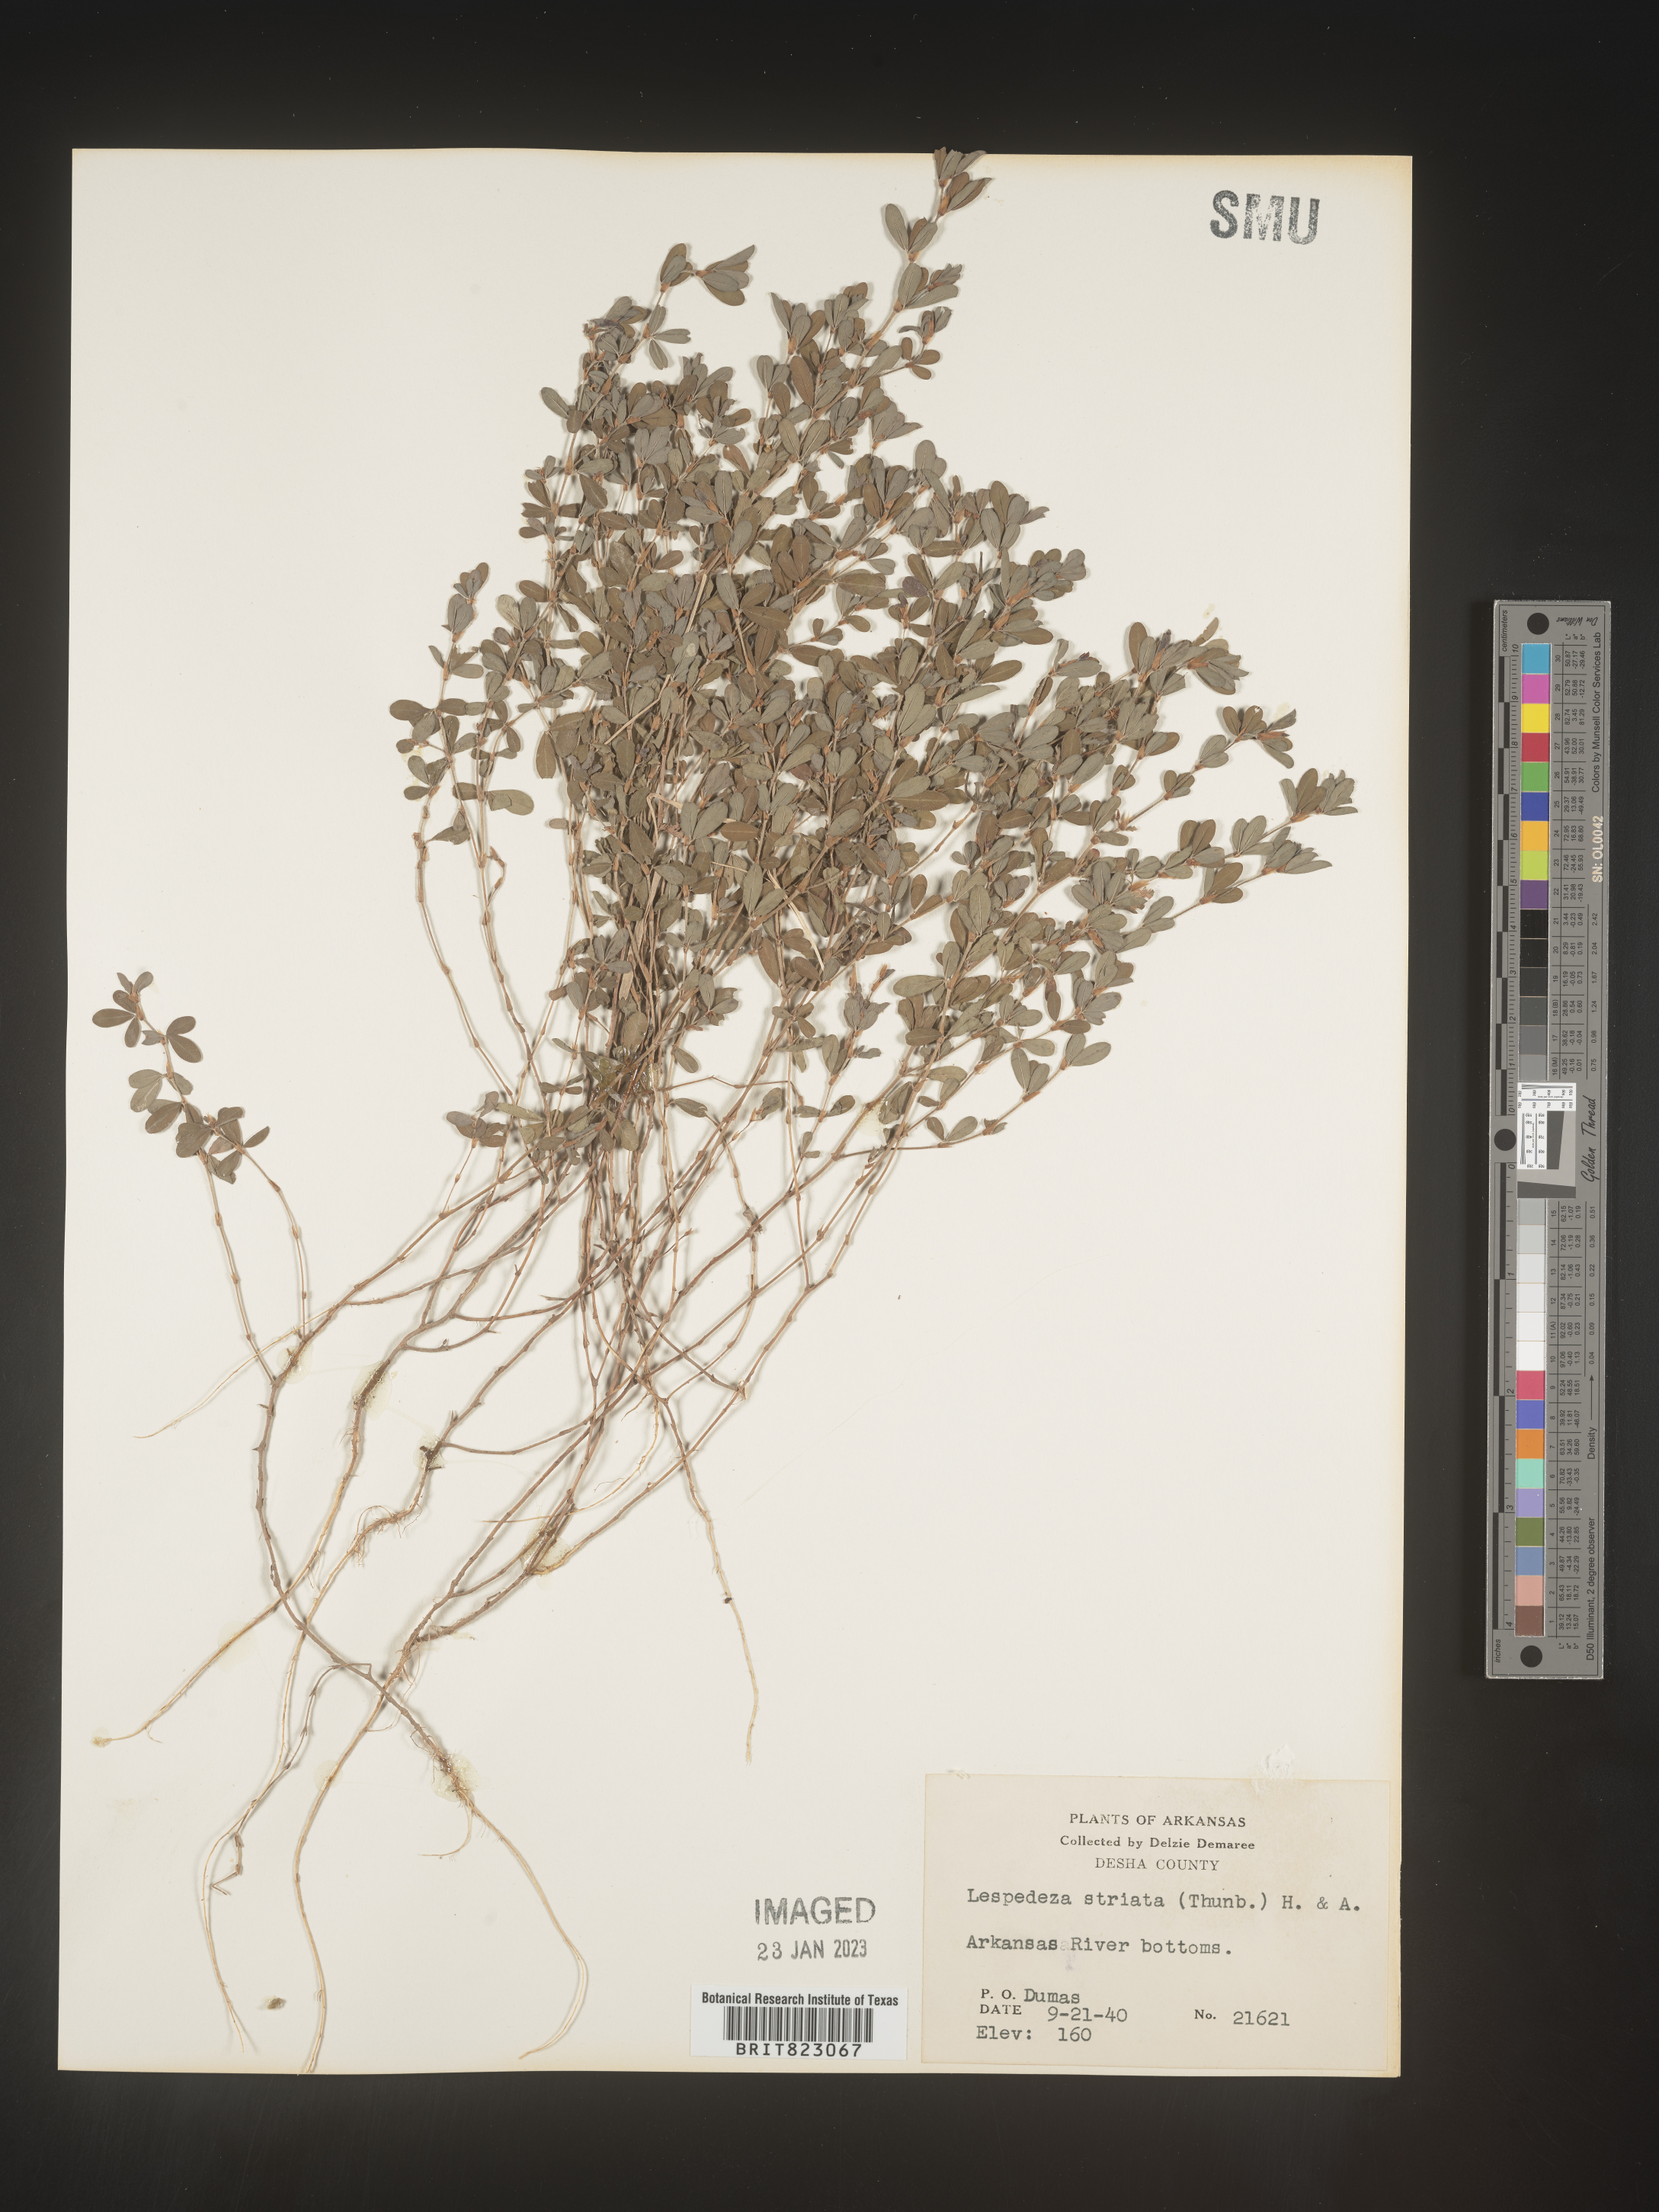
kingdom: Plantae
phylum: Tracheophyta
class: Magnoliopsida
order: Fabales
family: Fabaceae
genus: Kummerowia
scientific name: Kummerowia striata
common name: Japanese clover
